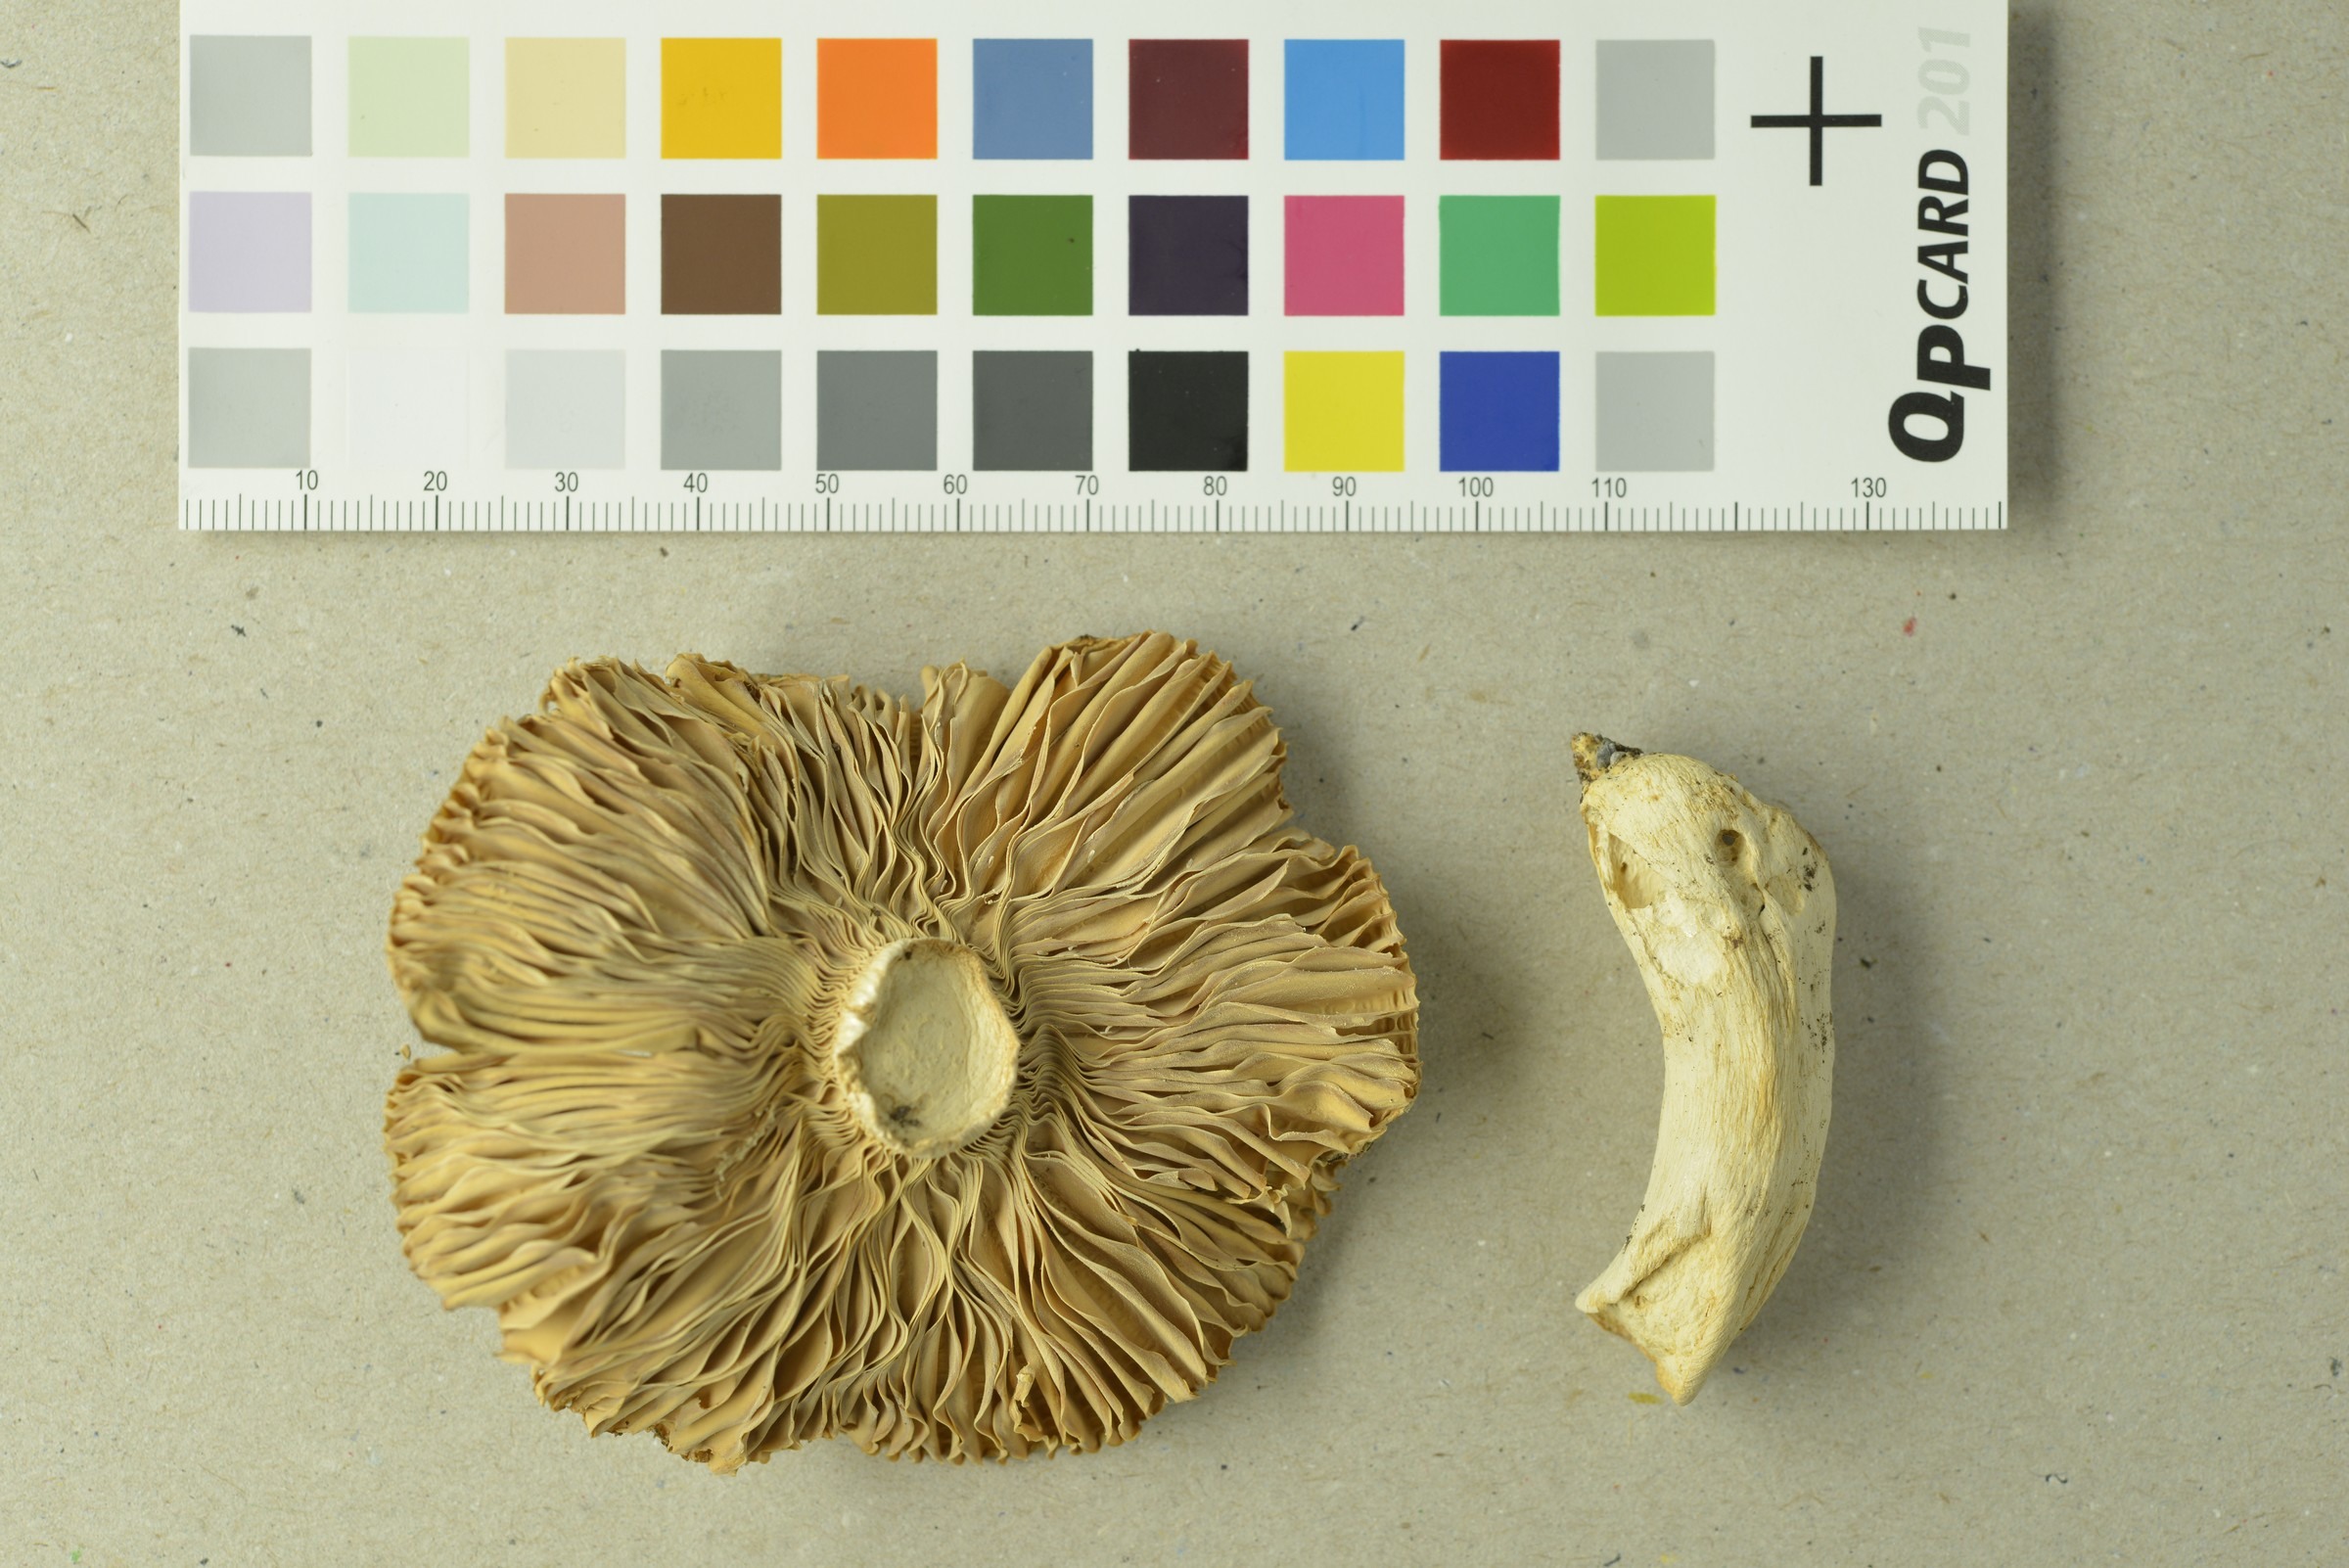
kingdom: Fungi
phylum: Basidiomycota
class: Agaricomycetes
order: Russulales
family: Russulaceae
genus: Russula
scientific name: Russula medullata
